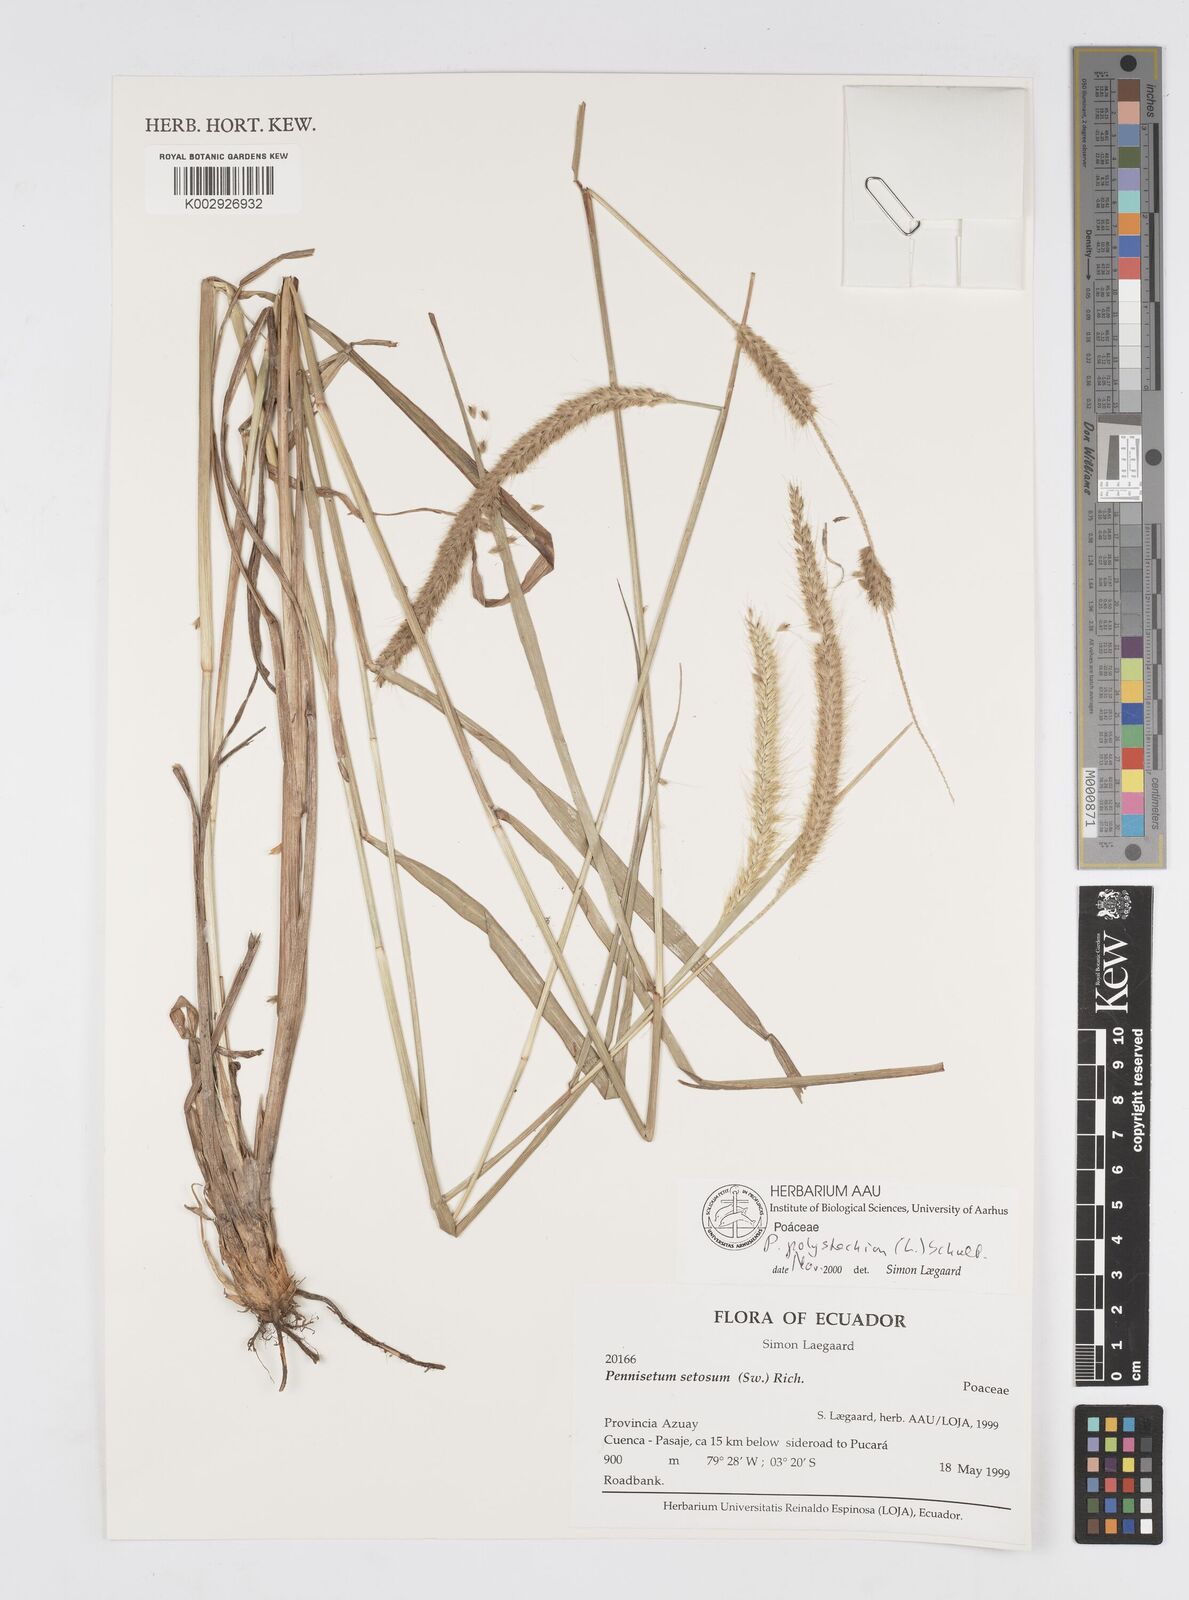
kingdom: Plantae
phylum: Tracheophyta
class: Liliopsida
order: Poales
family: Poaceae
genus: Setaria
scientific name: Setaria parviflora
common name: Knotroot bristle-grass
